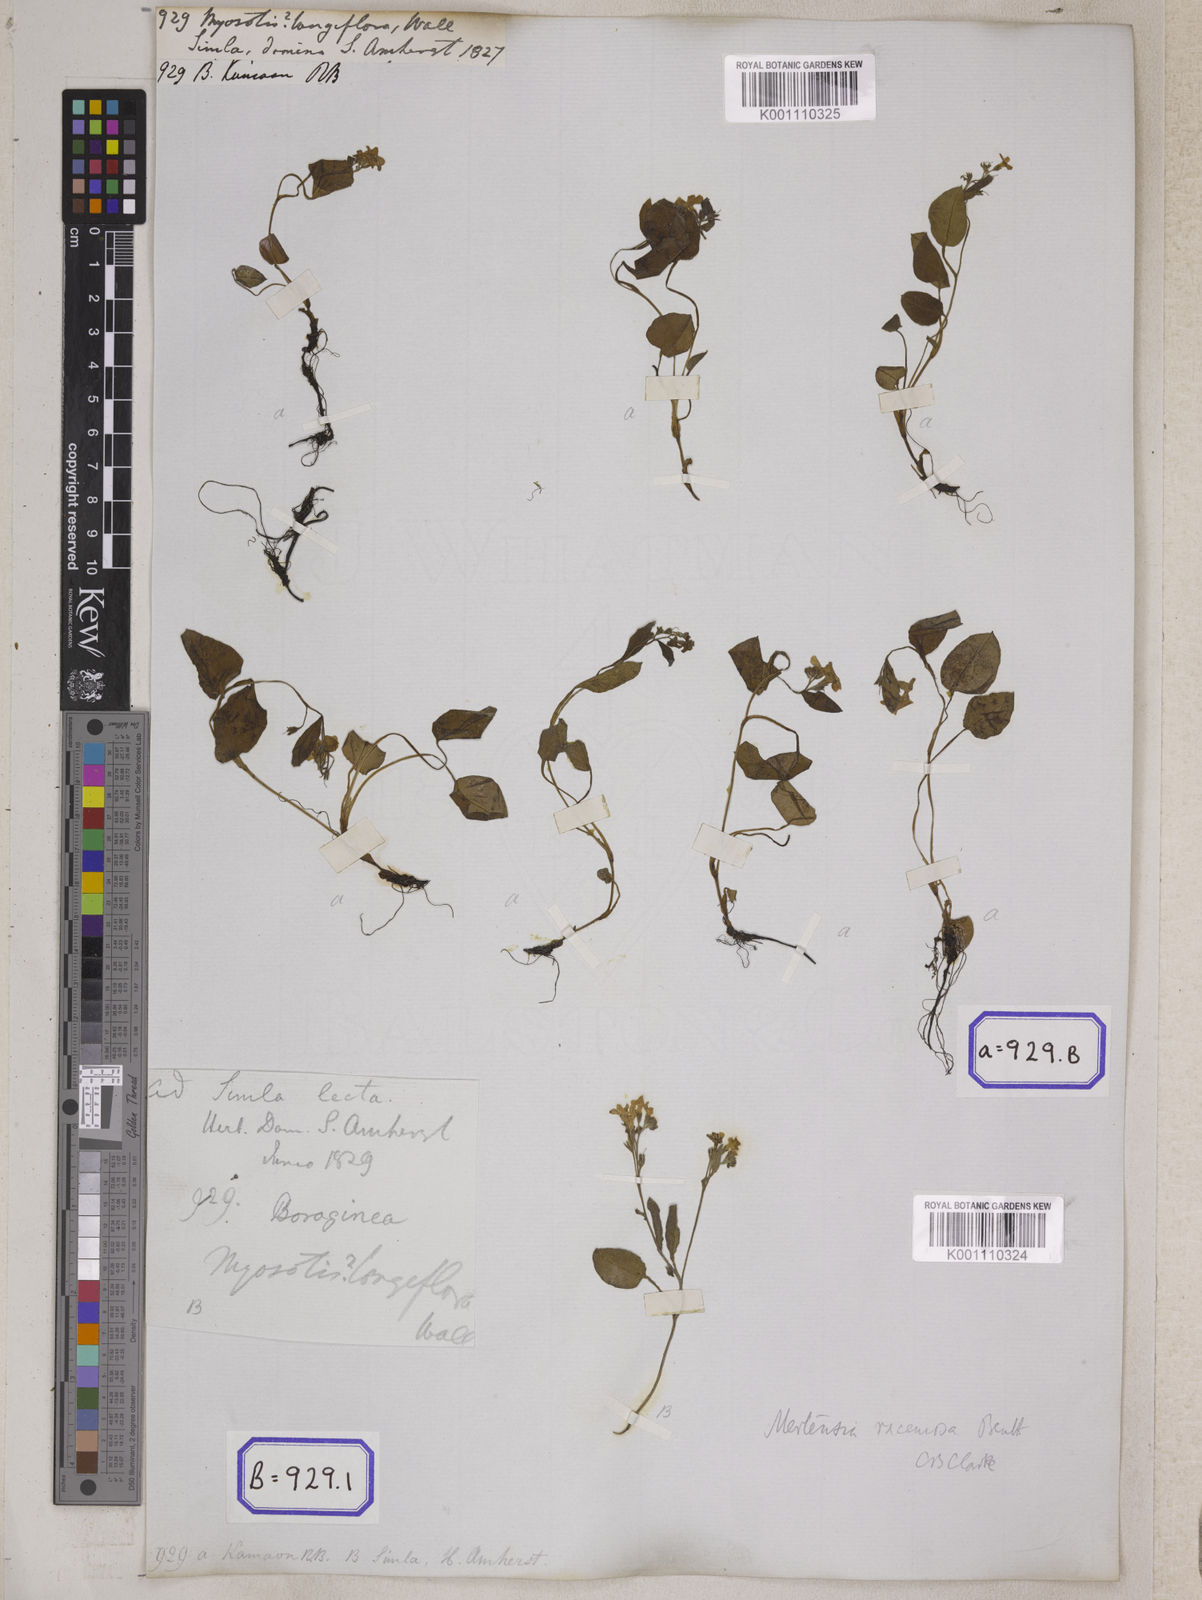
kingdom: Plantae
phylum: Tracheophyta
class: Magnoliopsida
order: Boraginales
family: Boraginaceae
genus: Myosotis
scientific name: Myosotis
